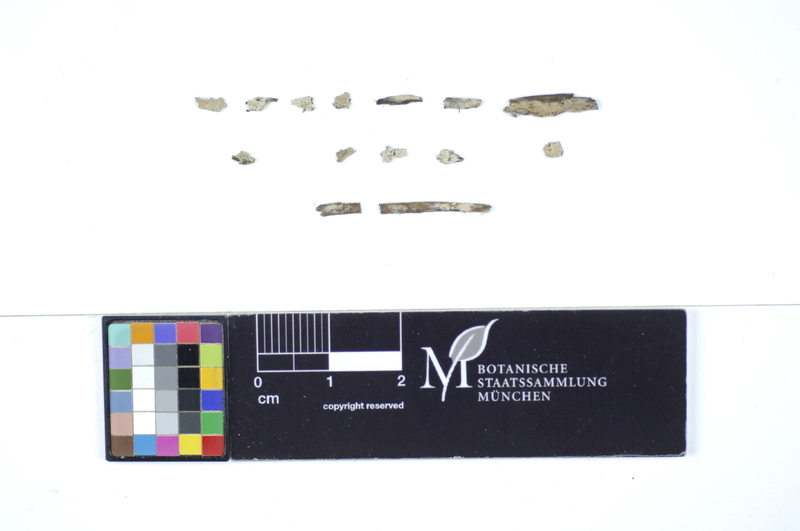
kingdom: Plantae
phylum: Tracheophyta
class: Pinopsida
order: Pinales
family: Pinaceae
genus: Pinus
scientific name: Pinus
